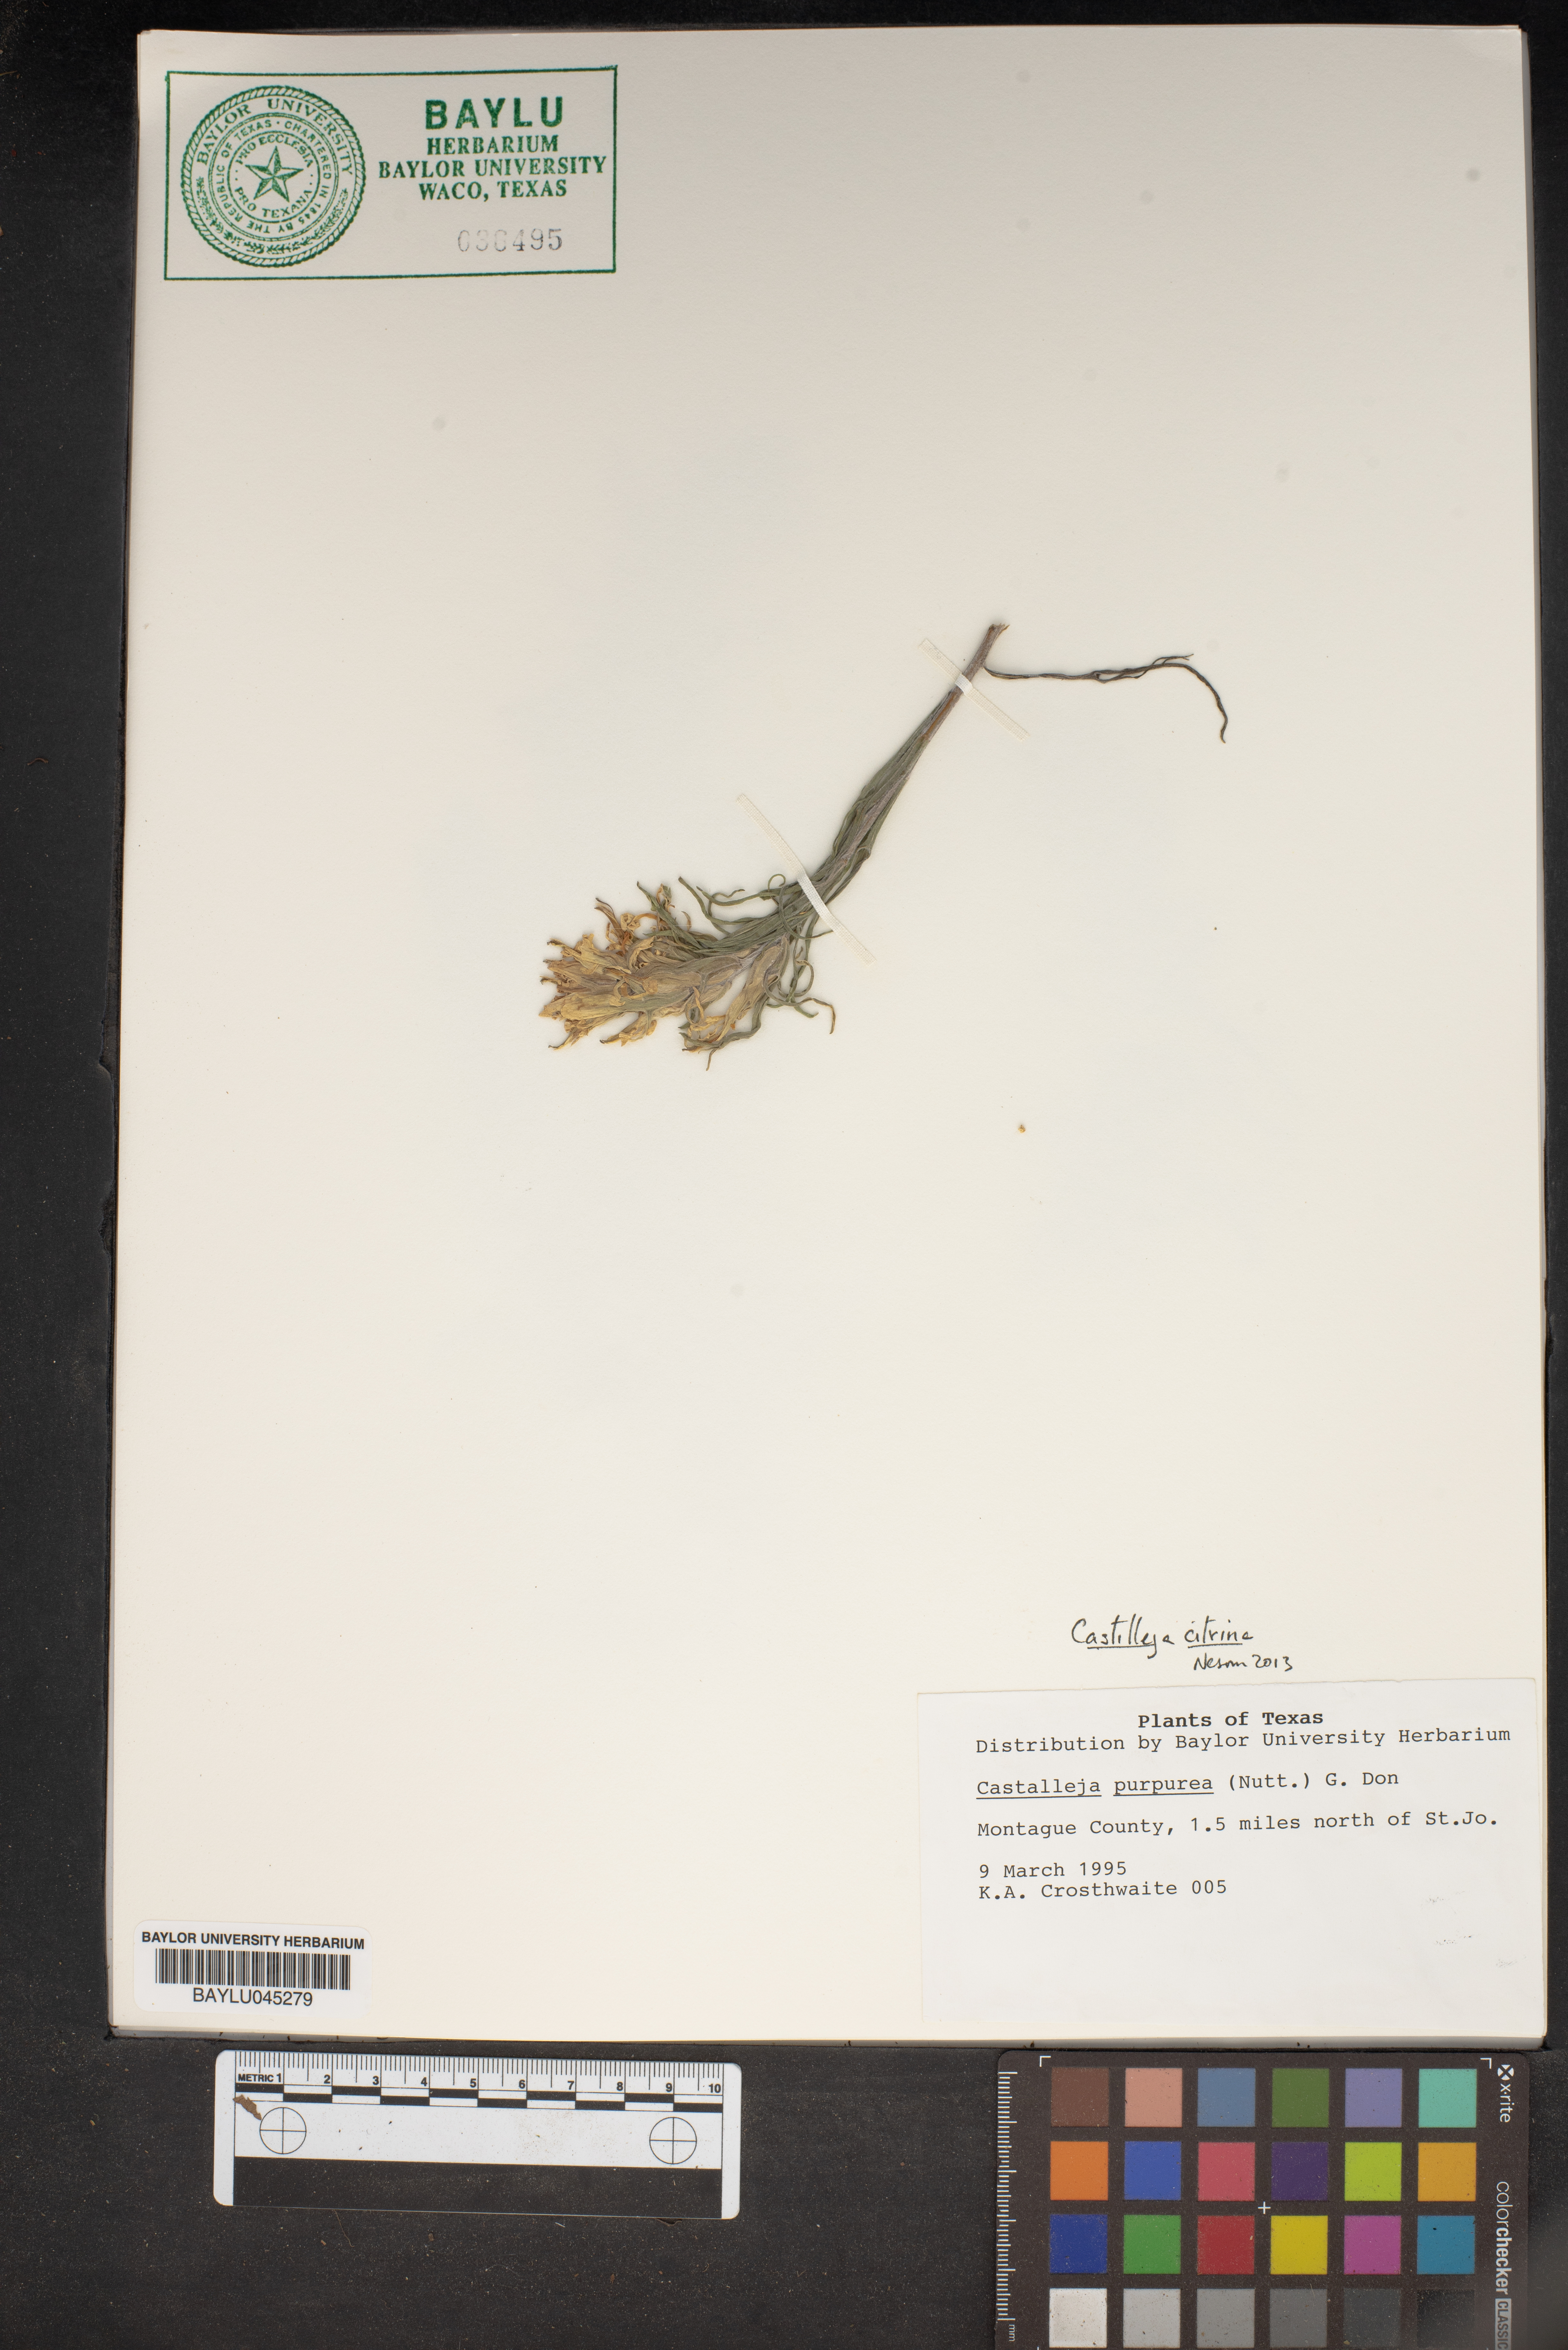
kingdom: Plantae
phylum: Tracheophyta
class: Magnoliopsida
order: Lamiales
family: Orobanchaceae
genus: Castilleja
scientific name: Castilleja purpurea
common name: Plains paintbrush
